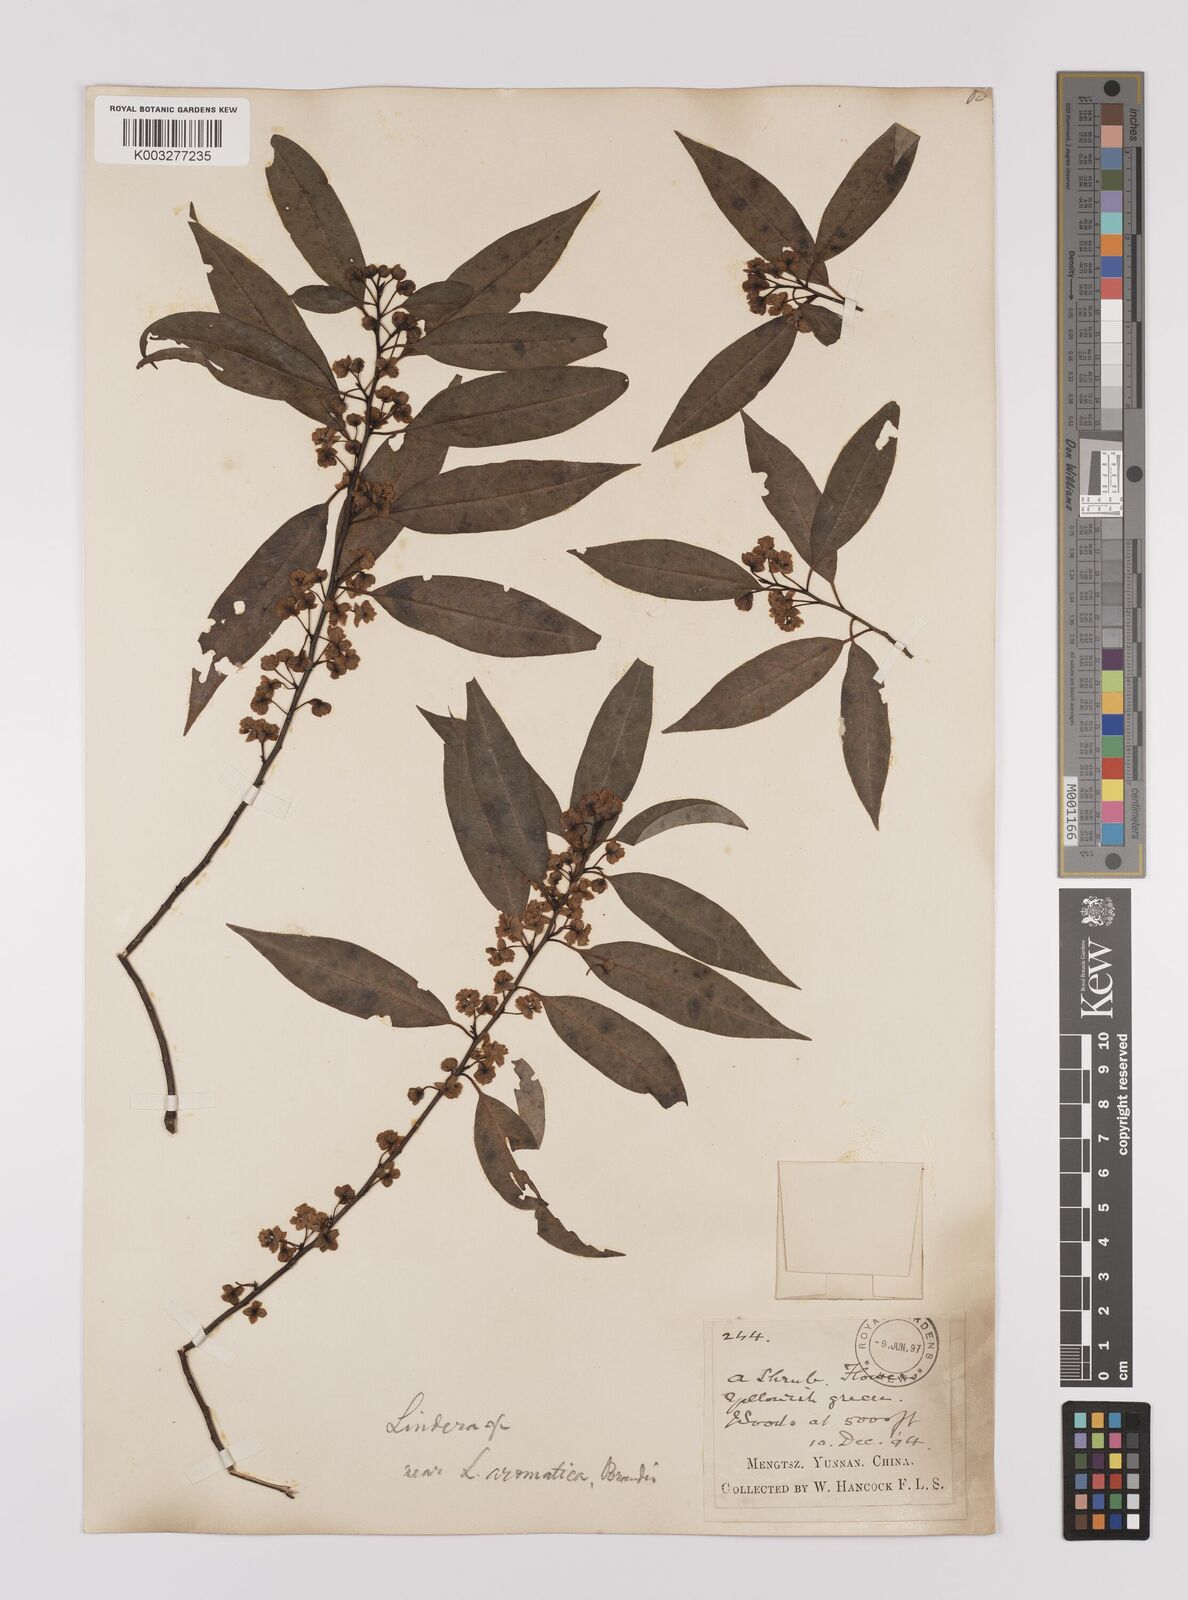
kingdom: Plantae
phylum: Tracheophyta
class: Magnoliopsida
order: Laurales
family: Lauraceae
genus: Lindera
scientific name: Lindera pipericarpa
